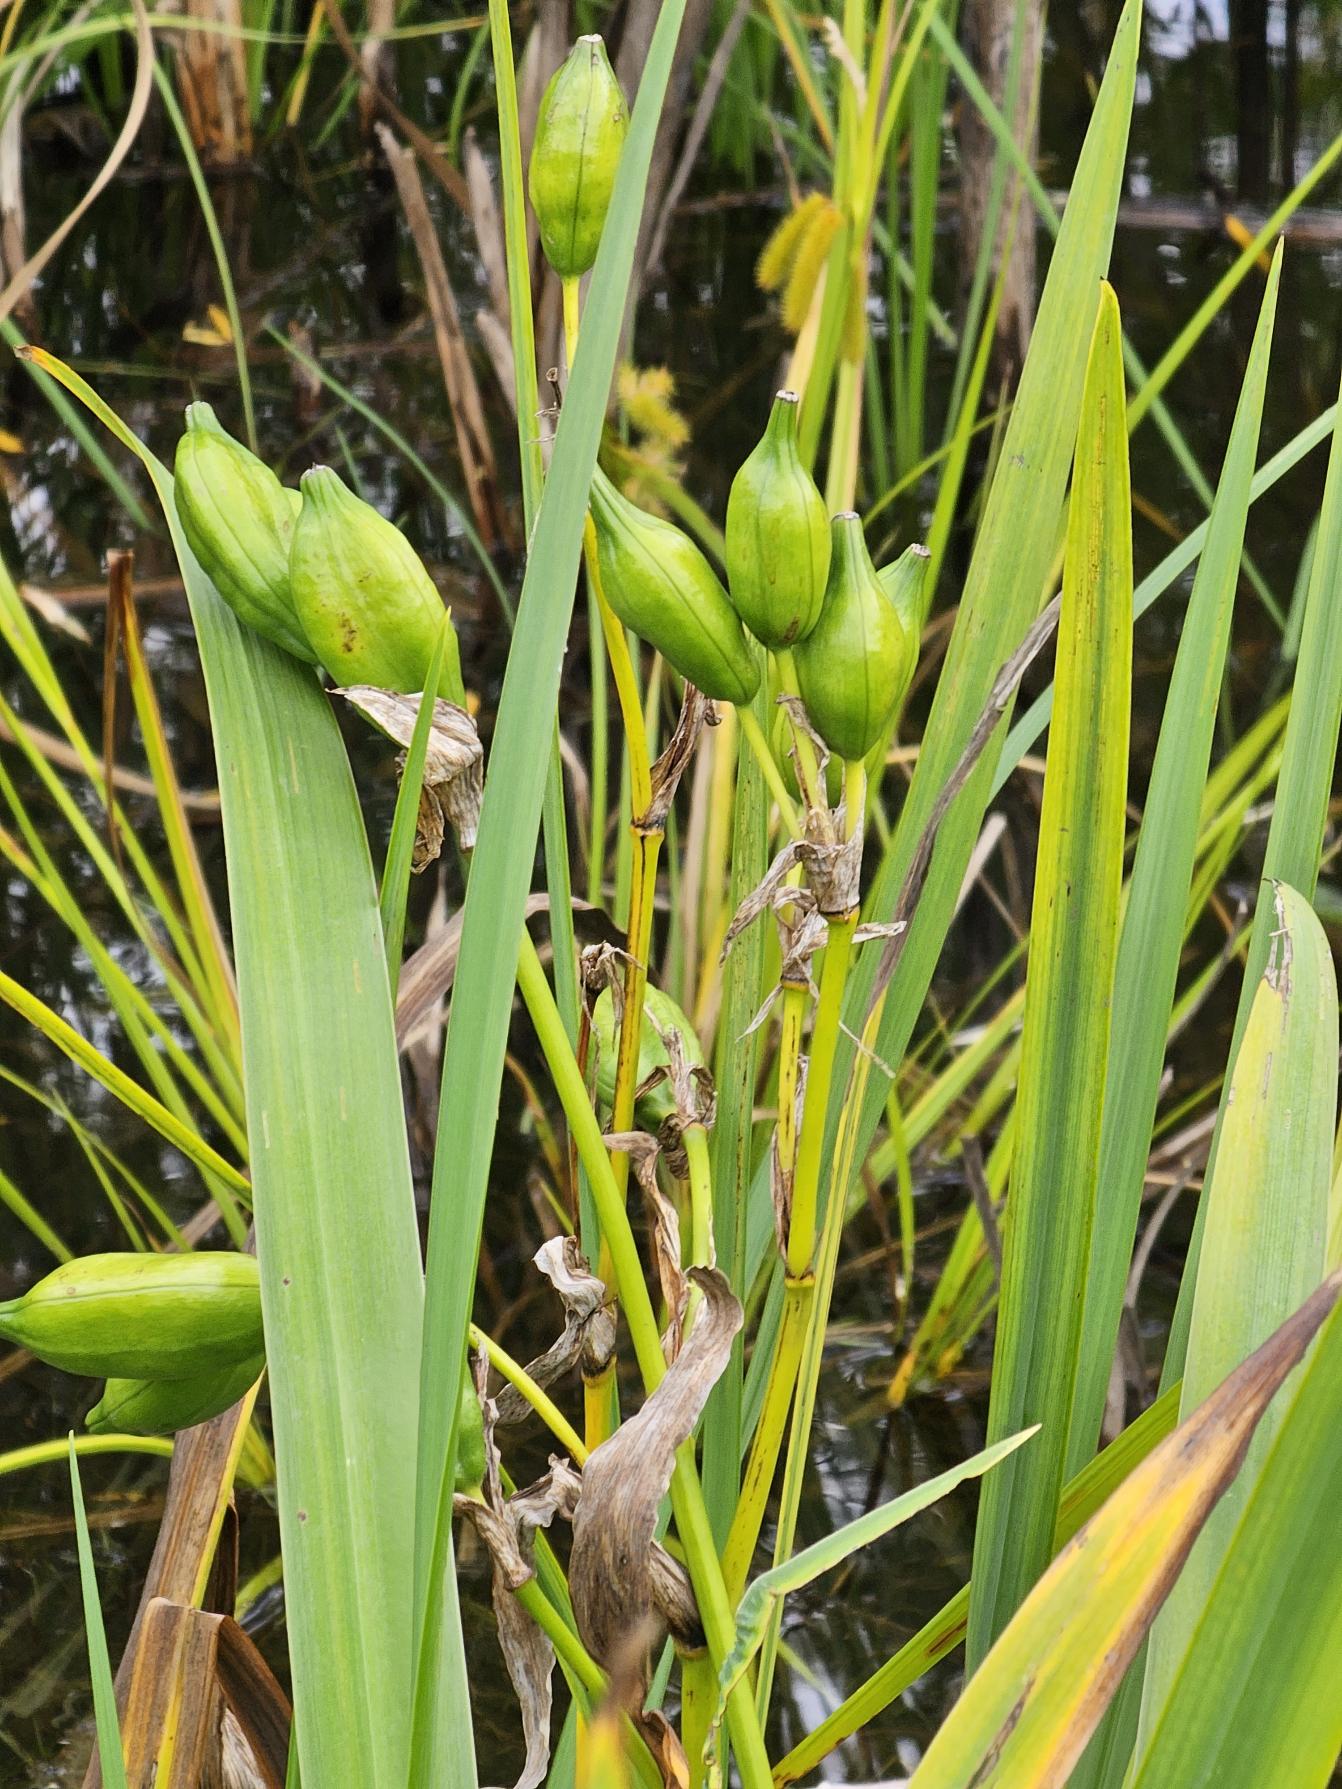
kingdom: Plantae
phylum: Tracheophyta
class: Liliopsida
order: Asparagales
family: Iridaceae
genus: Iris
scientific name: Iris pseudacorus
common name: Gul iris
